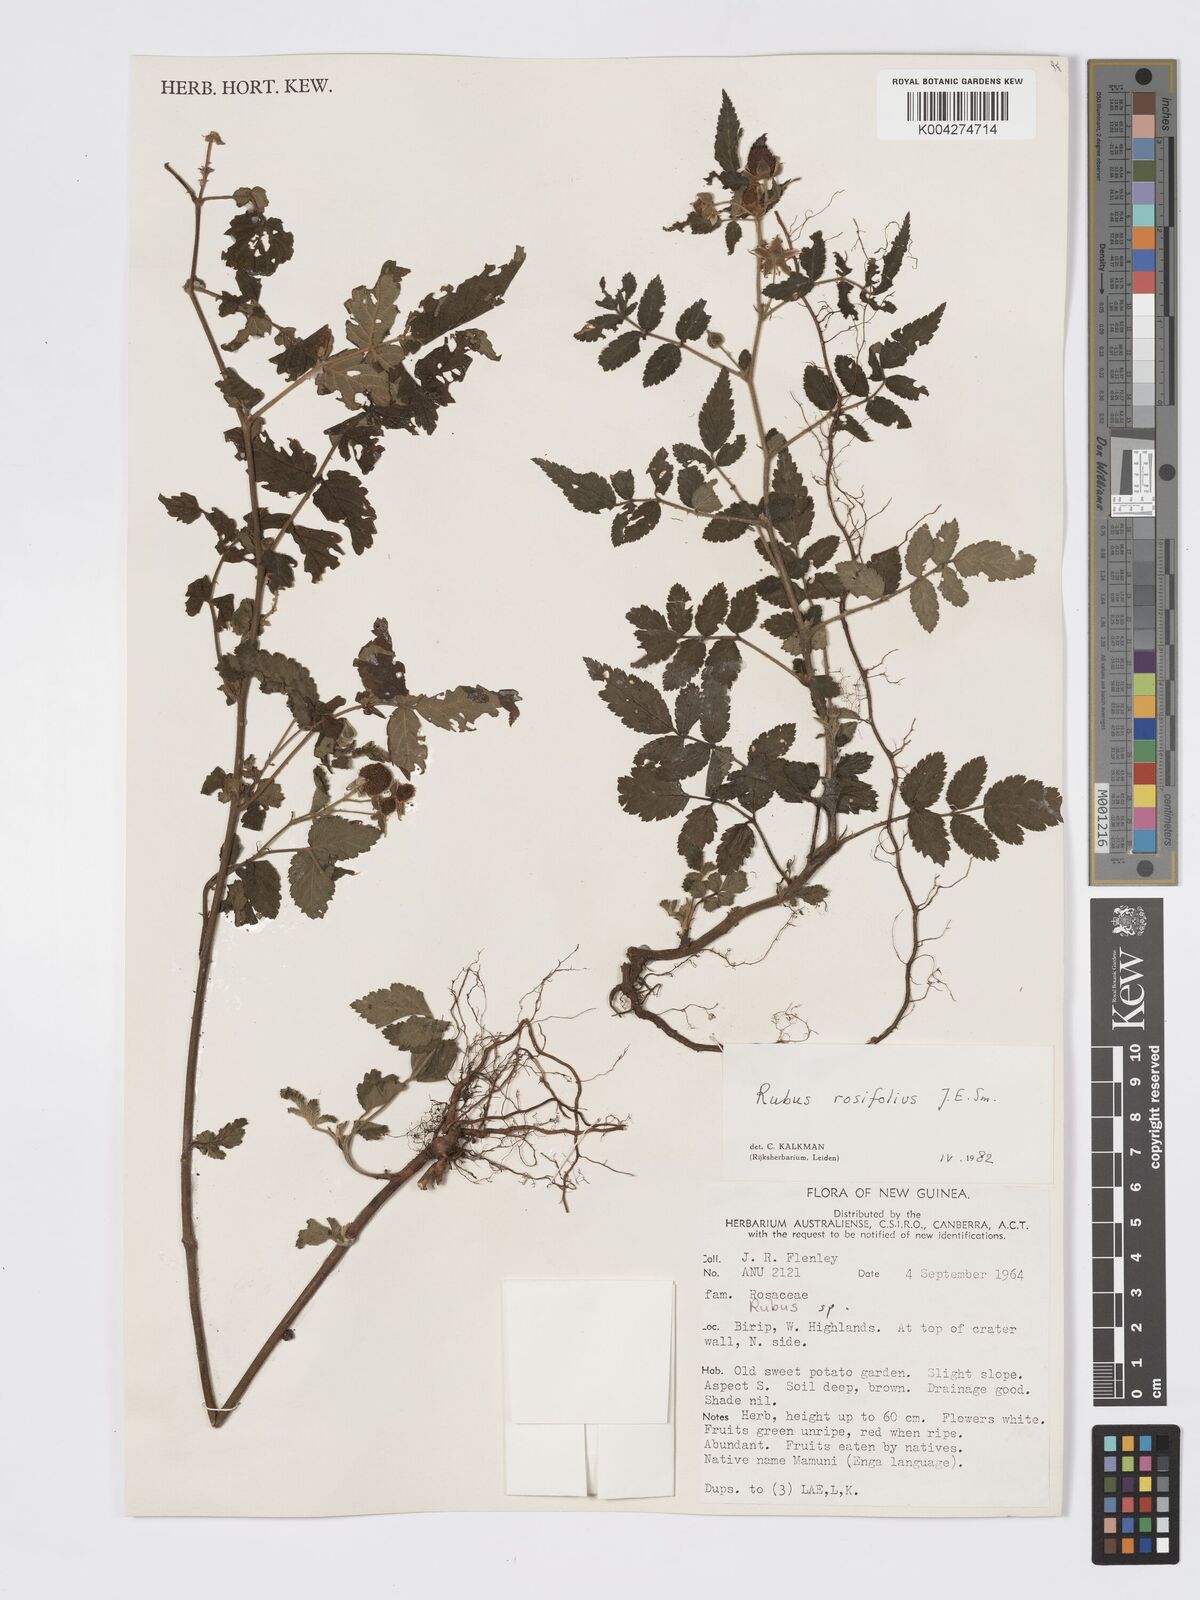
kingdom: Plantae
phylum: Tracheophyta
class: Magnoliopsida
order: Rosales
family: Rosaceae
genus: Rubus
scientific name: Rubus
